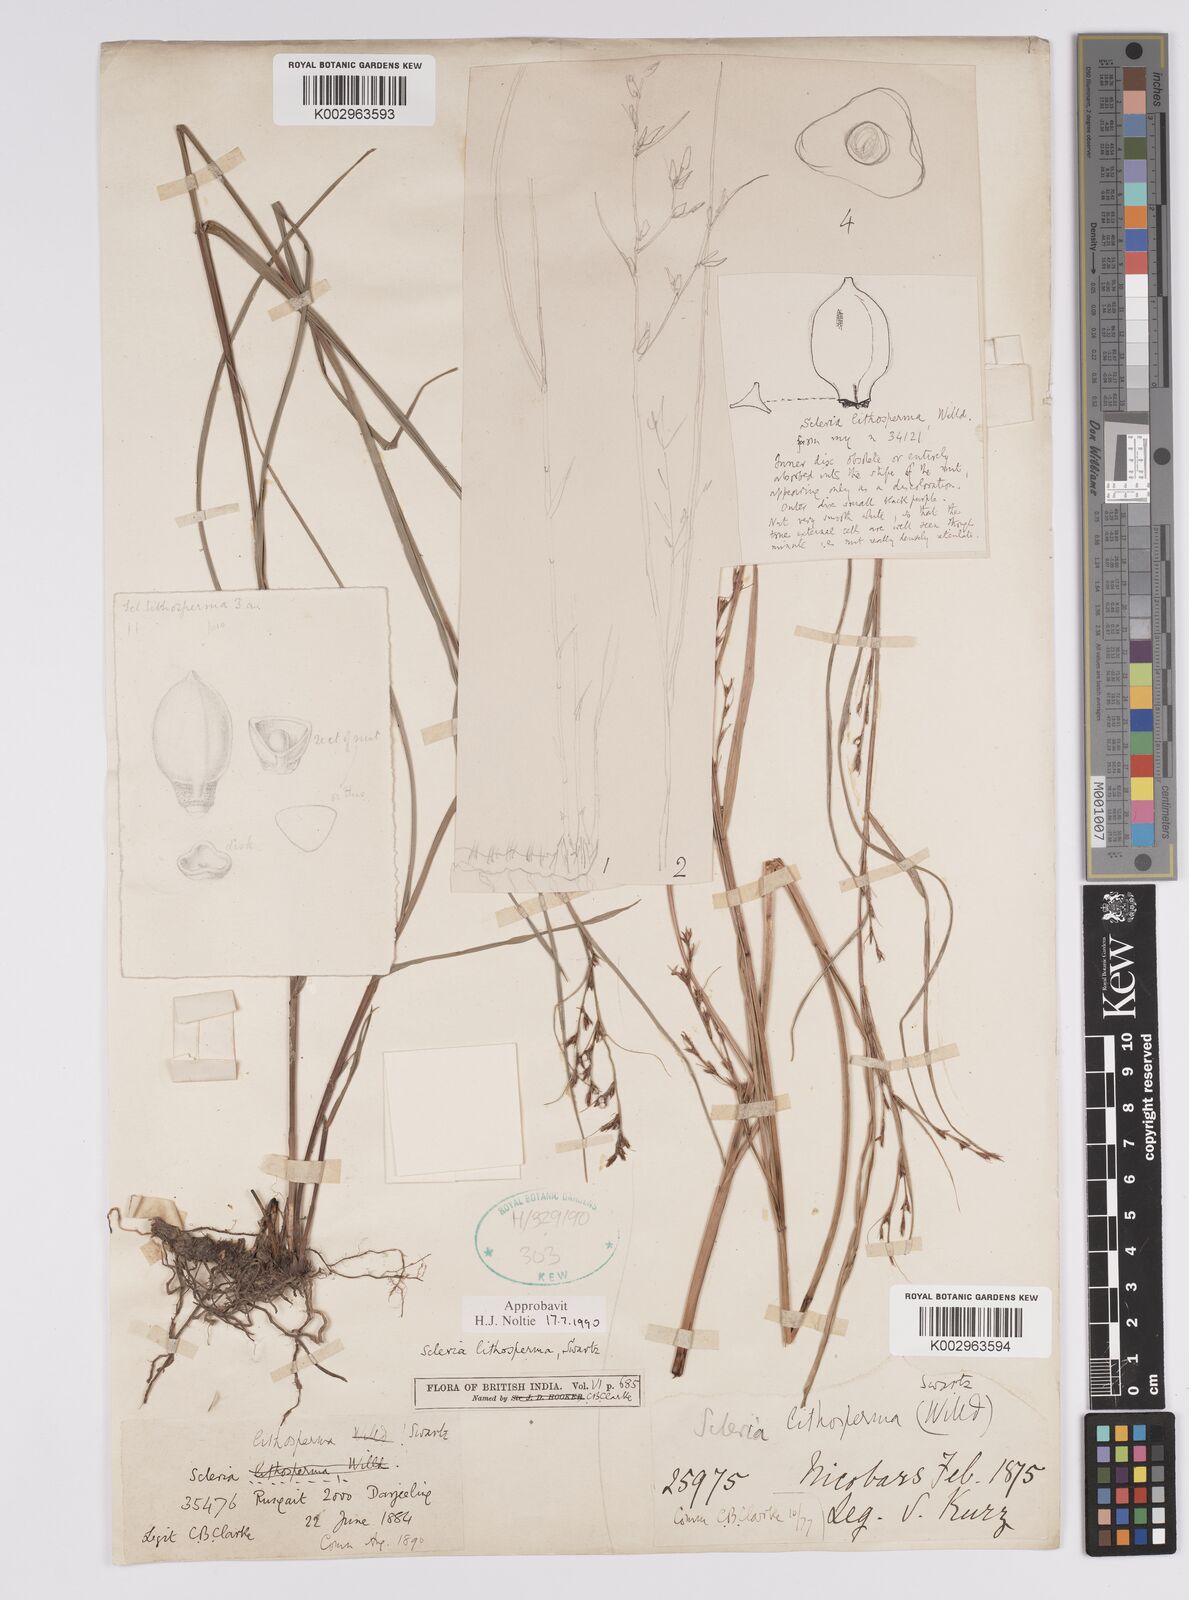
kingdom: Plantae
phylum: Tracheophyta
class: Liliopsida
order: Poales
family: Cyperaceae
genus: Scleria
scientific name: Scleria lithosperma
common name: Florida keys nut-rush
